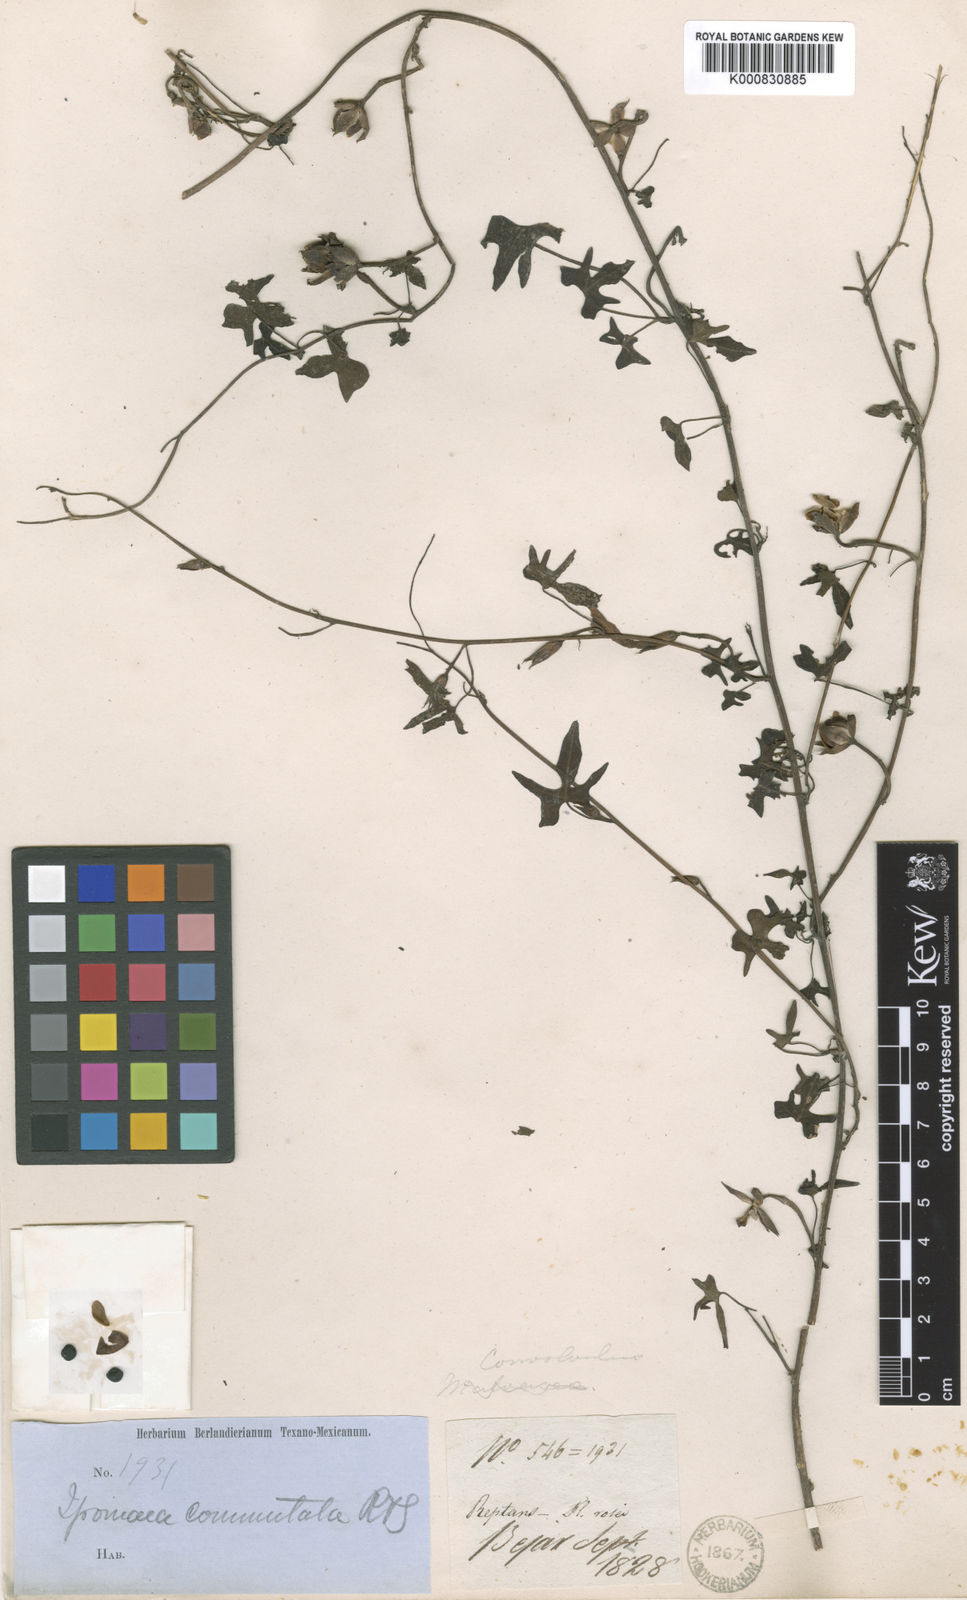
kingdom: Plantae
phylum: Tracheophyta
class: Magnoliopsida
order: Solanales
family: Convolvulaceae
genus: Ipomoea
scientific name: Ipomoea cordatotriloba
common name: Cotton morning glory
